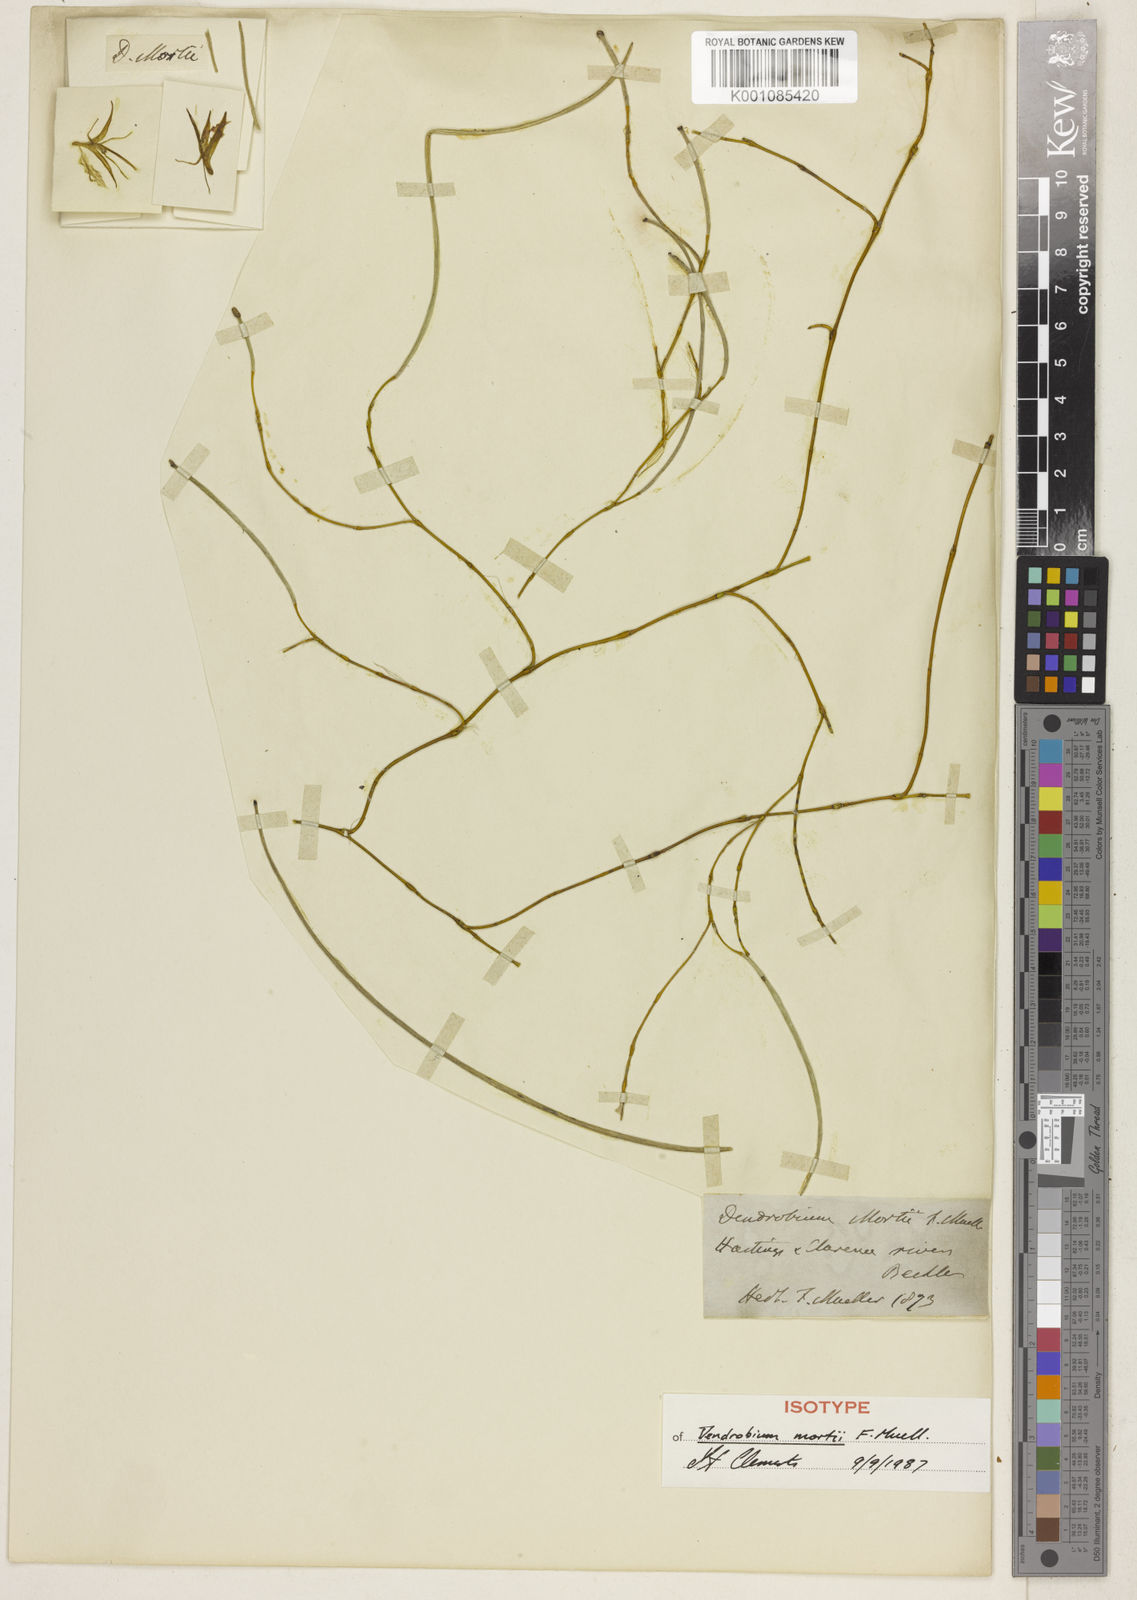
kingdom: Plantae
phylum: Tracheophyta
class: Liliopsida
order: Asparagales
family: Orchidaceae
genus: Dendrobium
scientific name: Dendrobium mortii
